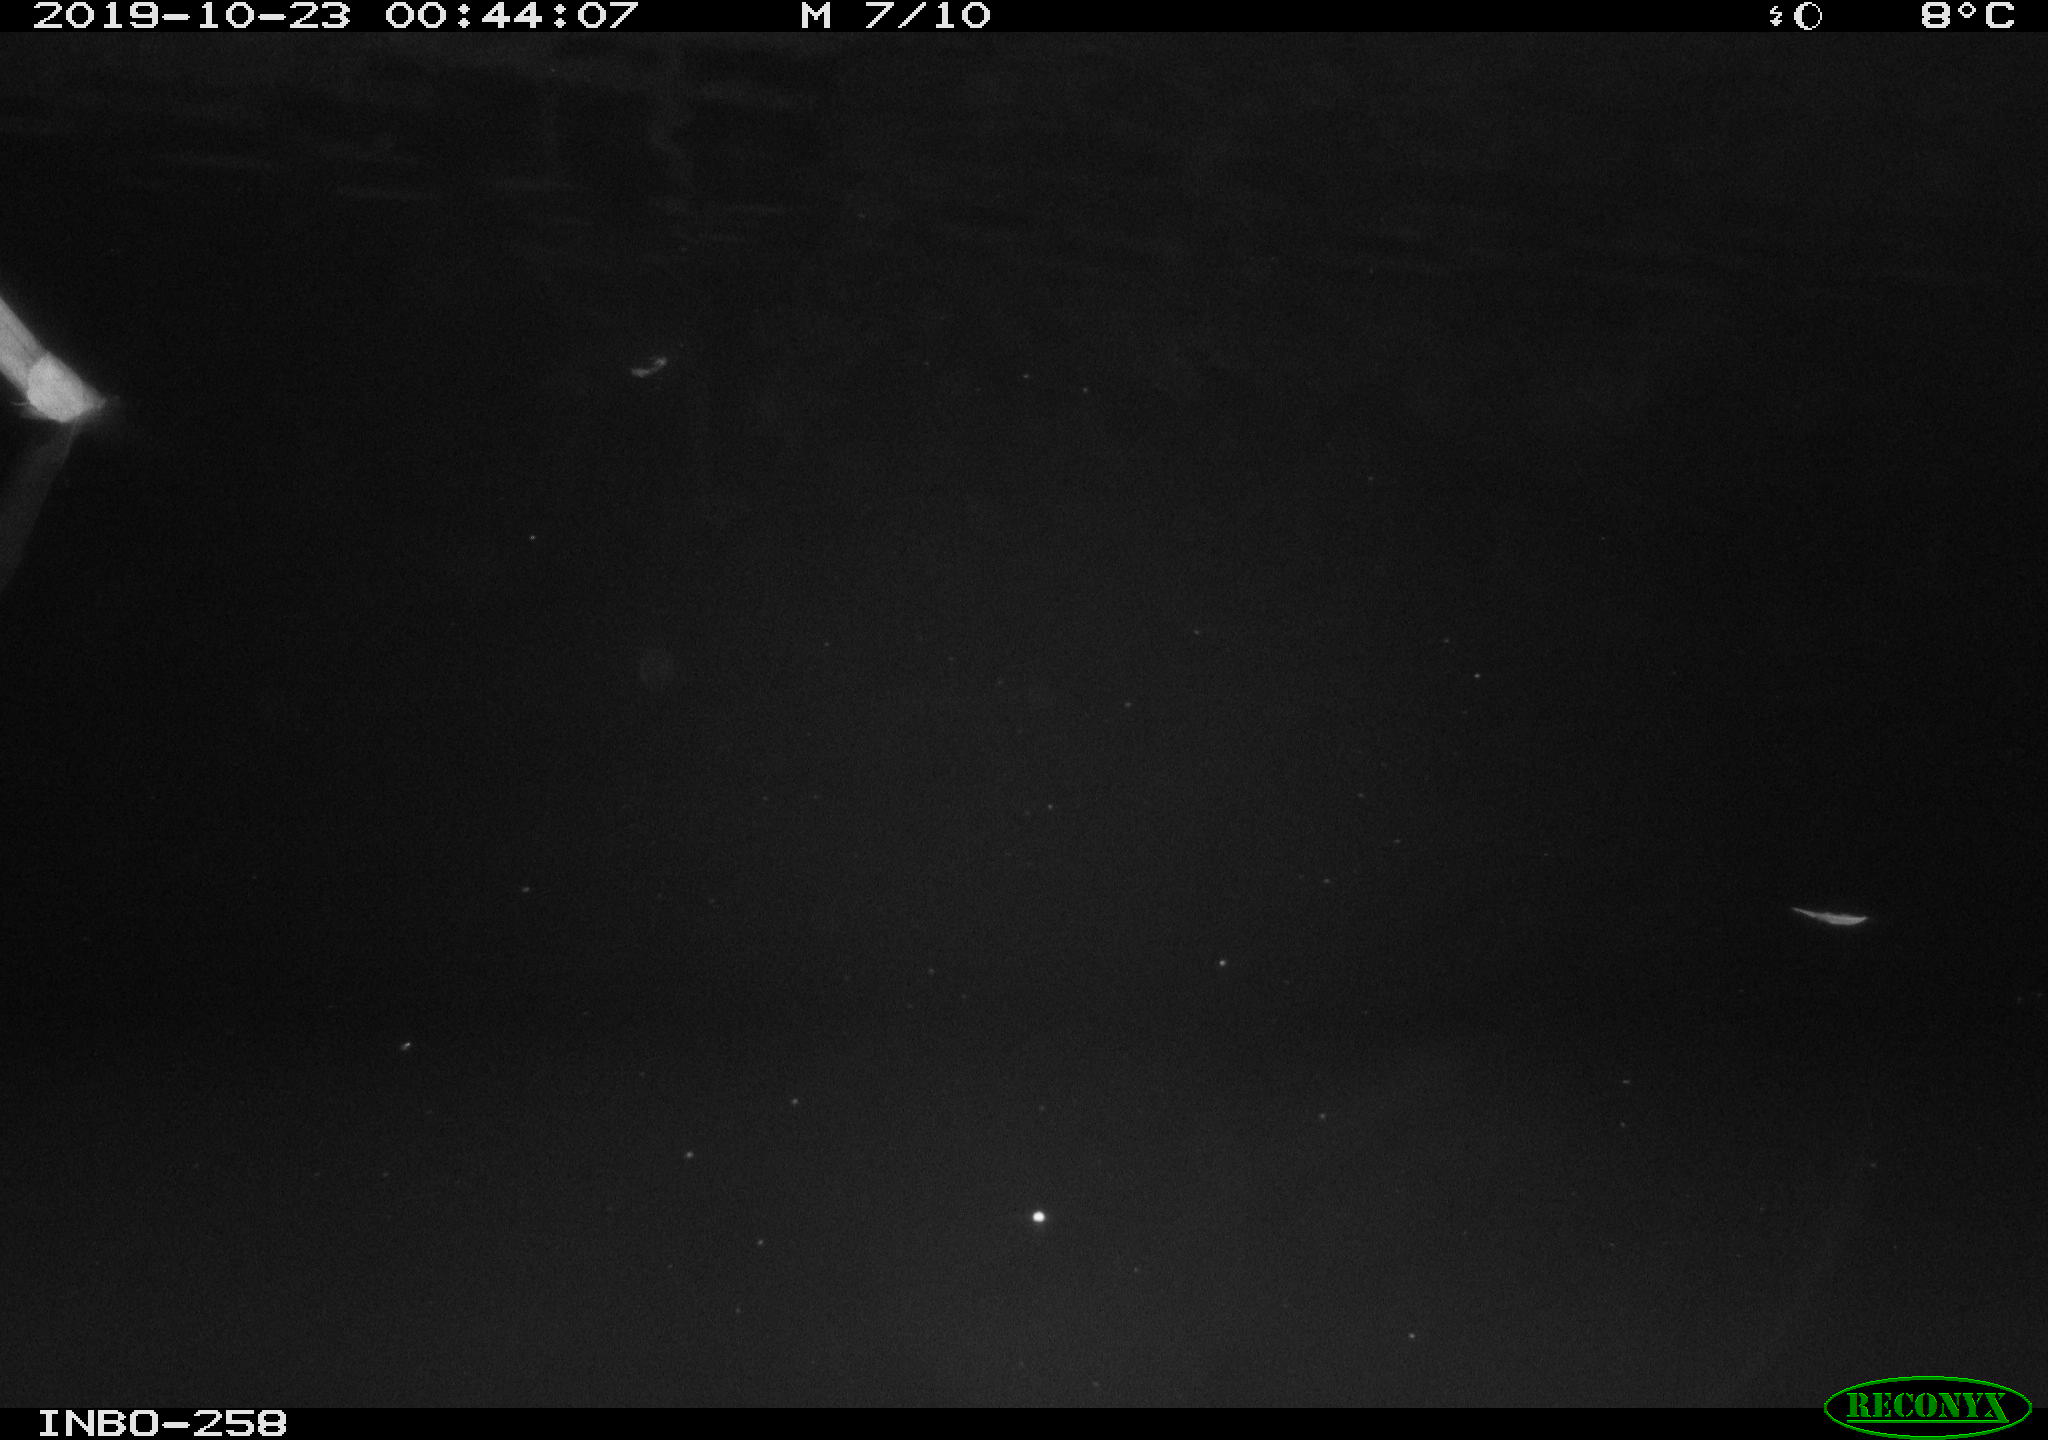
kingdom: Animalia
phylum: Chordata
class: Aves
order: Anseriformes
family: Anatidae
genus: Anas
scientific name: Anas platyrhynchos
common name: Mallard
